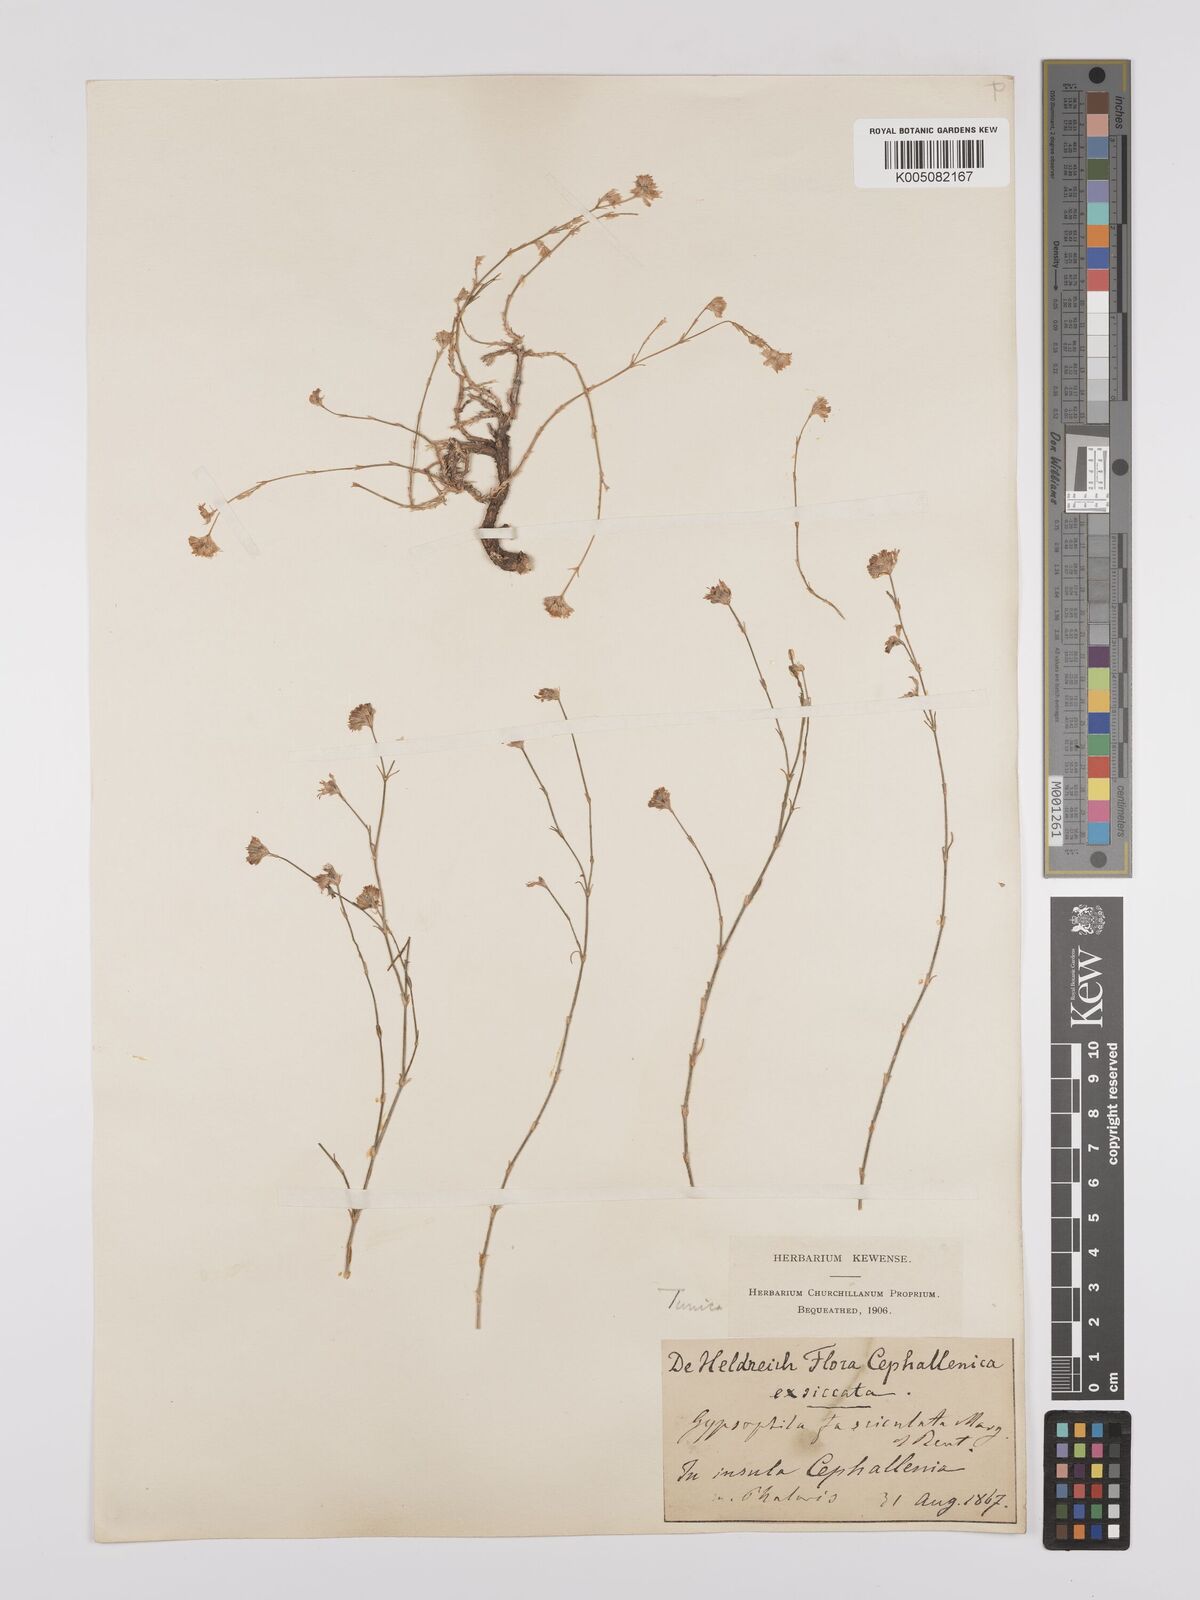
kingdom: Plantae
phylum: Tracheophyta
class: Magnoliopsida
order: Caryophyllales
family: Caryophyllaceae
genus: Petrorhagia
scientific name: Petrorhagia fasciculata
